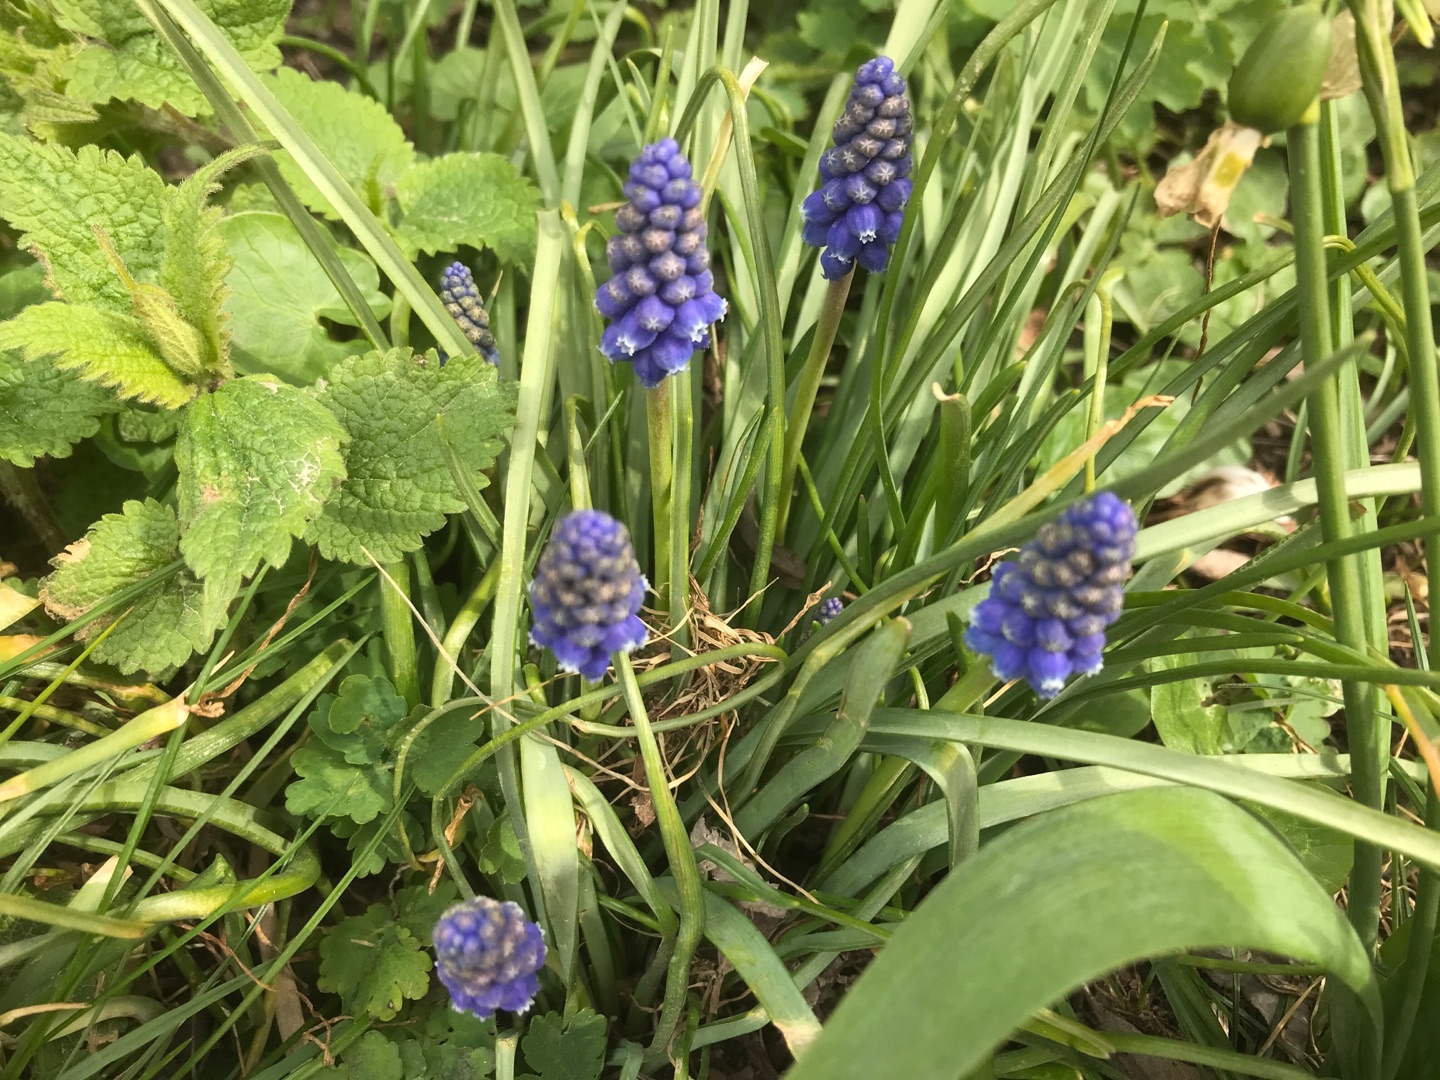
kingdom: Plantae
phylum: Tracheophyta
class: Liliopsida
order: Asparagales
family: Asparagaceae
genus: Muscari
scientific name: Muscari armeniacum
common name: Armensk perlehyacint
